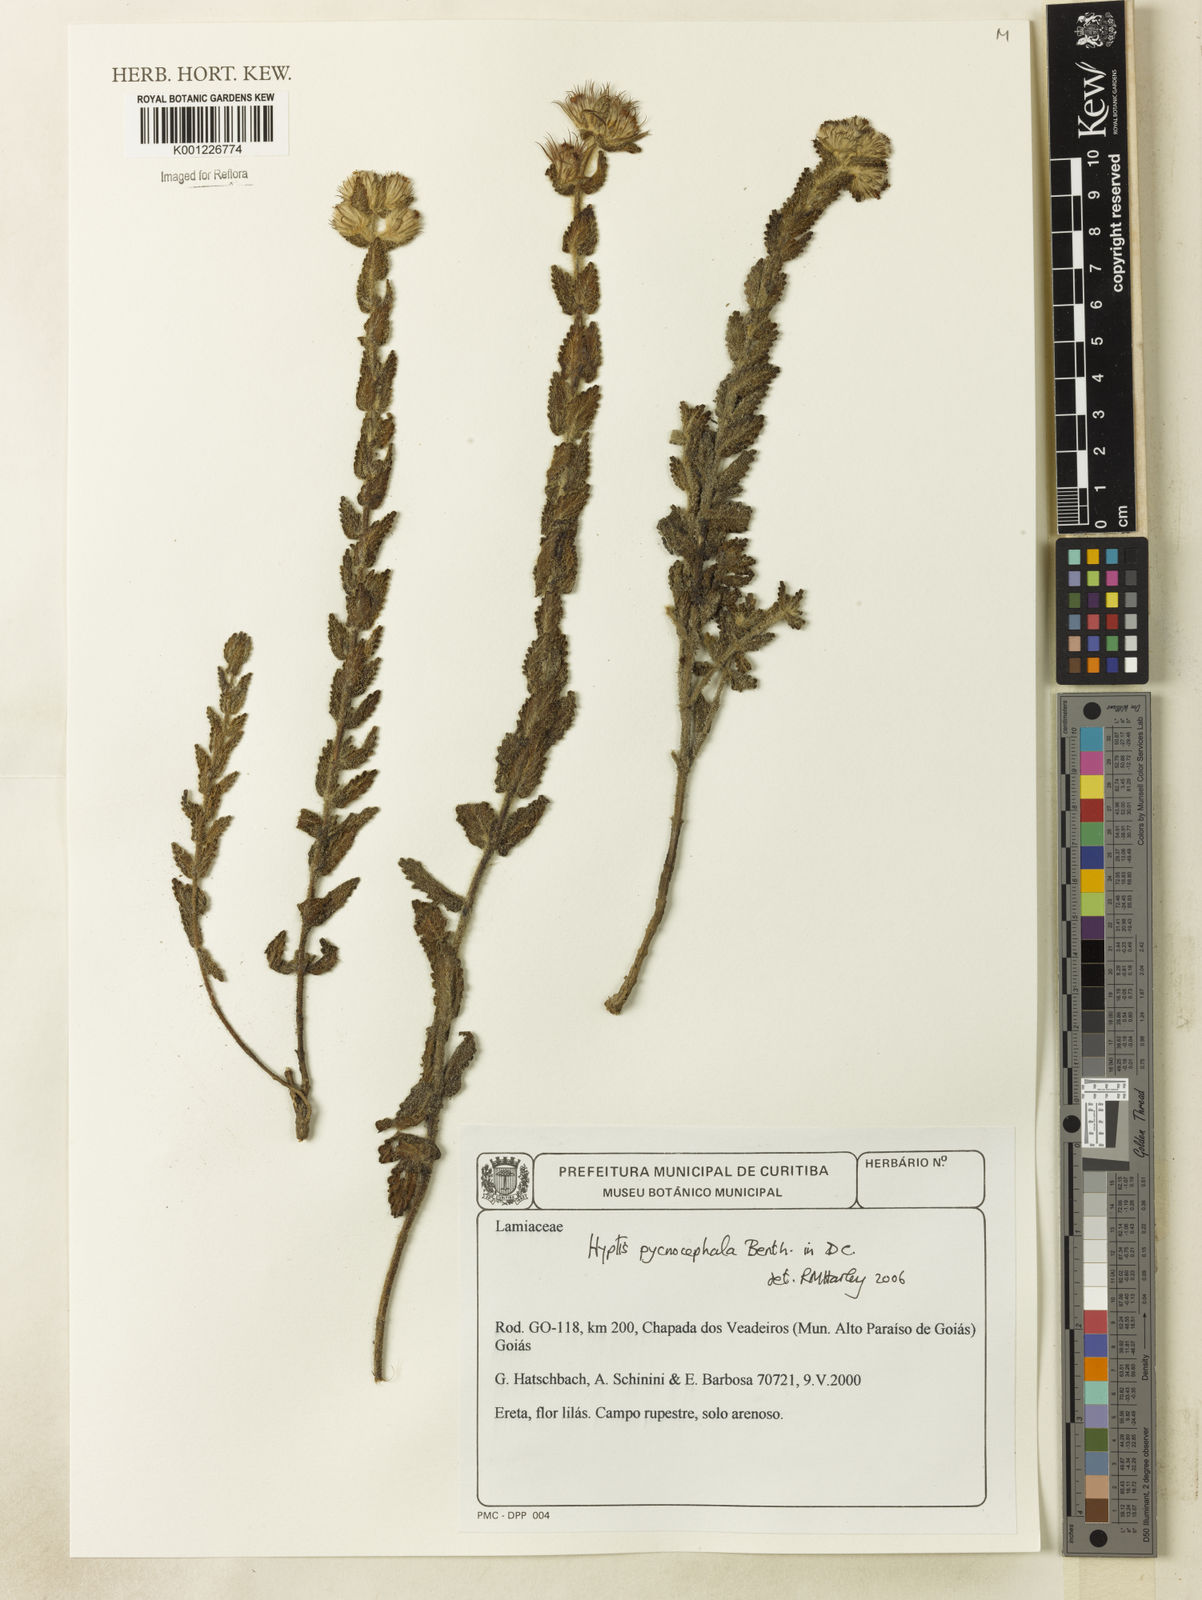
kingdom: Plantae
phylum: Tracheophyta
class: Magnoliopsida
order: Lamiales
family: Lamiaceae
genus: Hyptis
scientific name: Hyptis pycnocephala
